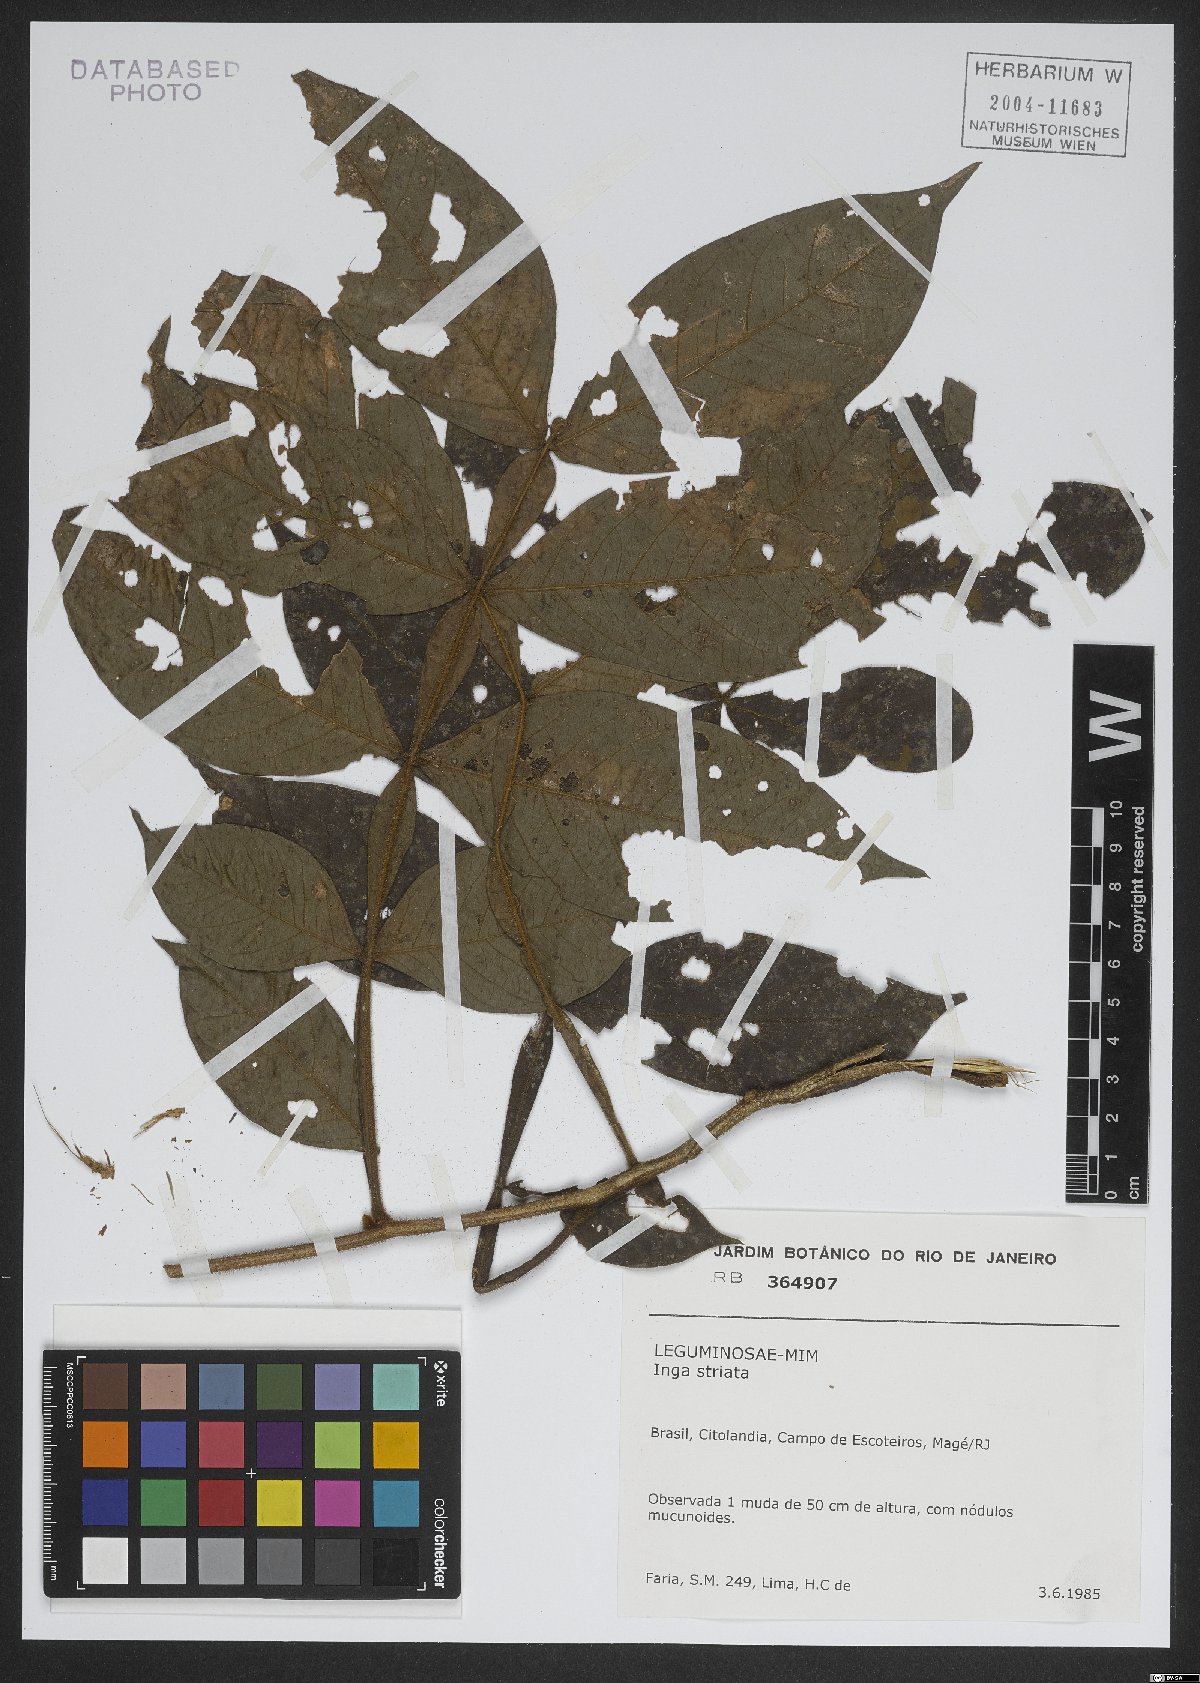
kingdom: Plantae
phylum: Tracheophyta
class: Magnoliopsida
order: Fabales
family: Fabaceae
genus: Inga
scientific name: Inga striata
